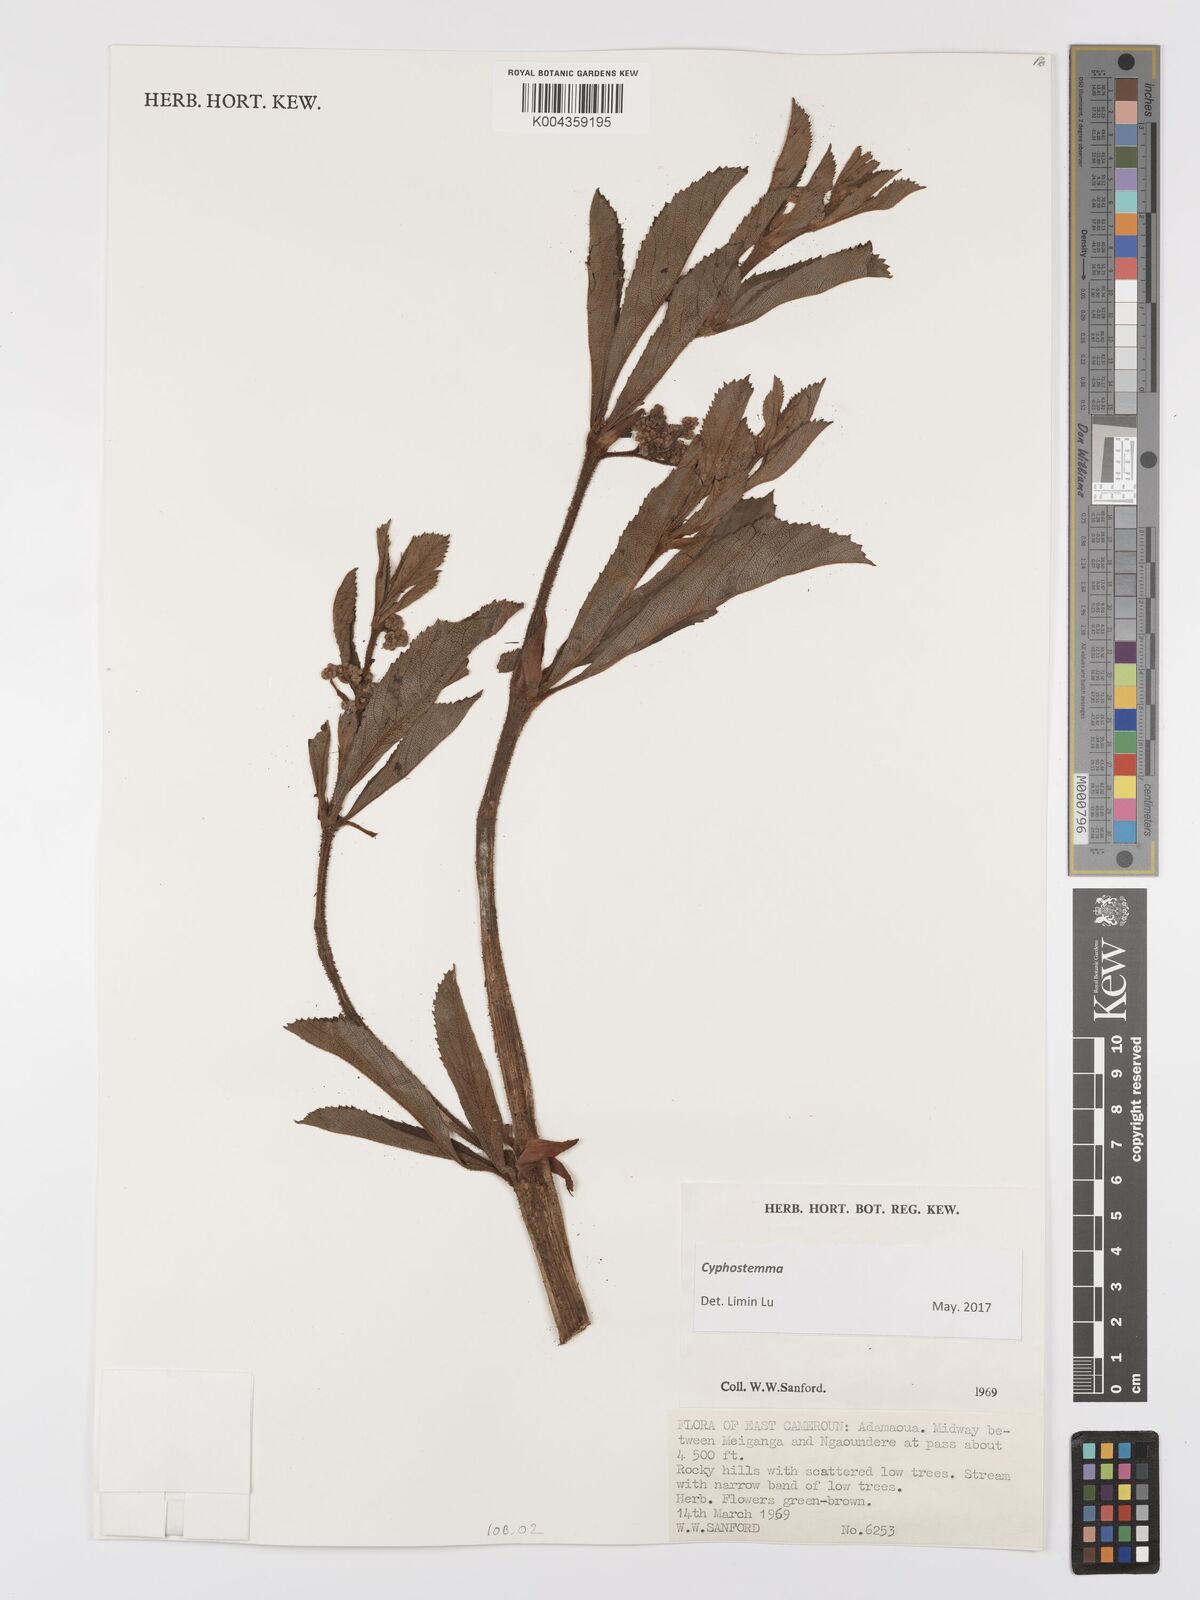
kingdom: Plantae
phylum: Tracheophyta
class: Magnoliopsida
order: Vitales
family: Vitaceae
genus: Cyphostemma
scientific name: Cyphostemma
